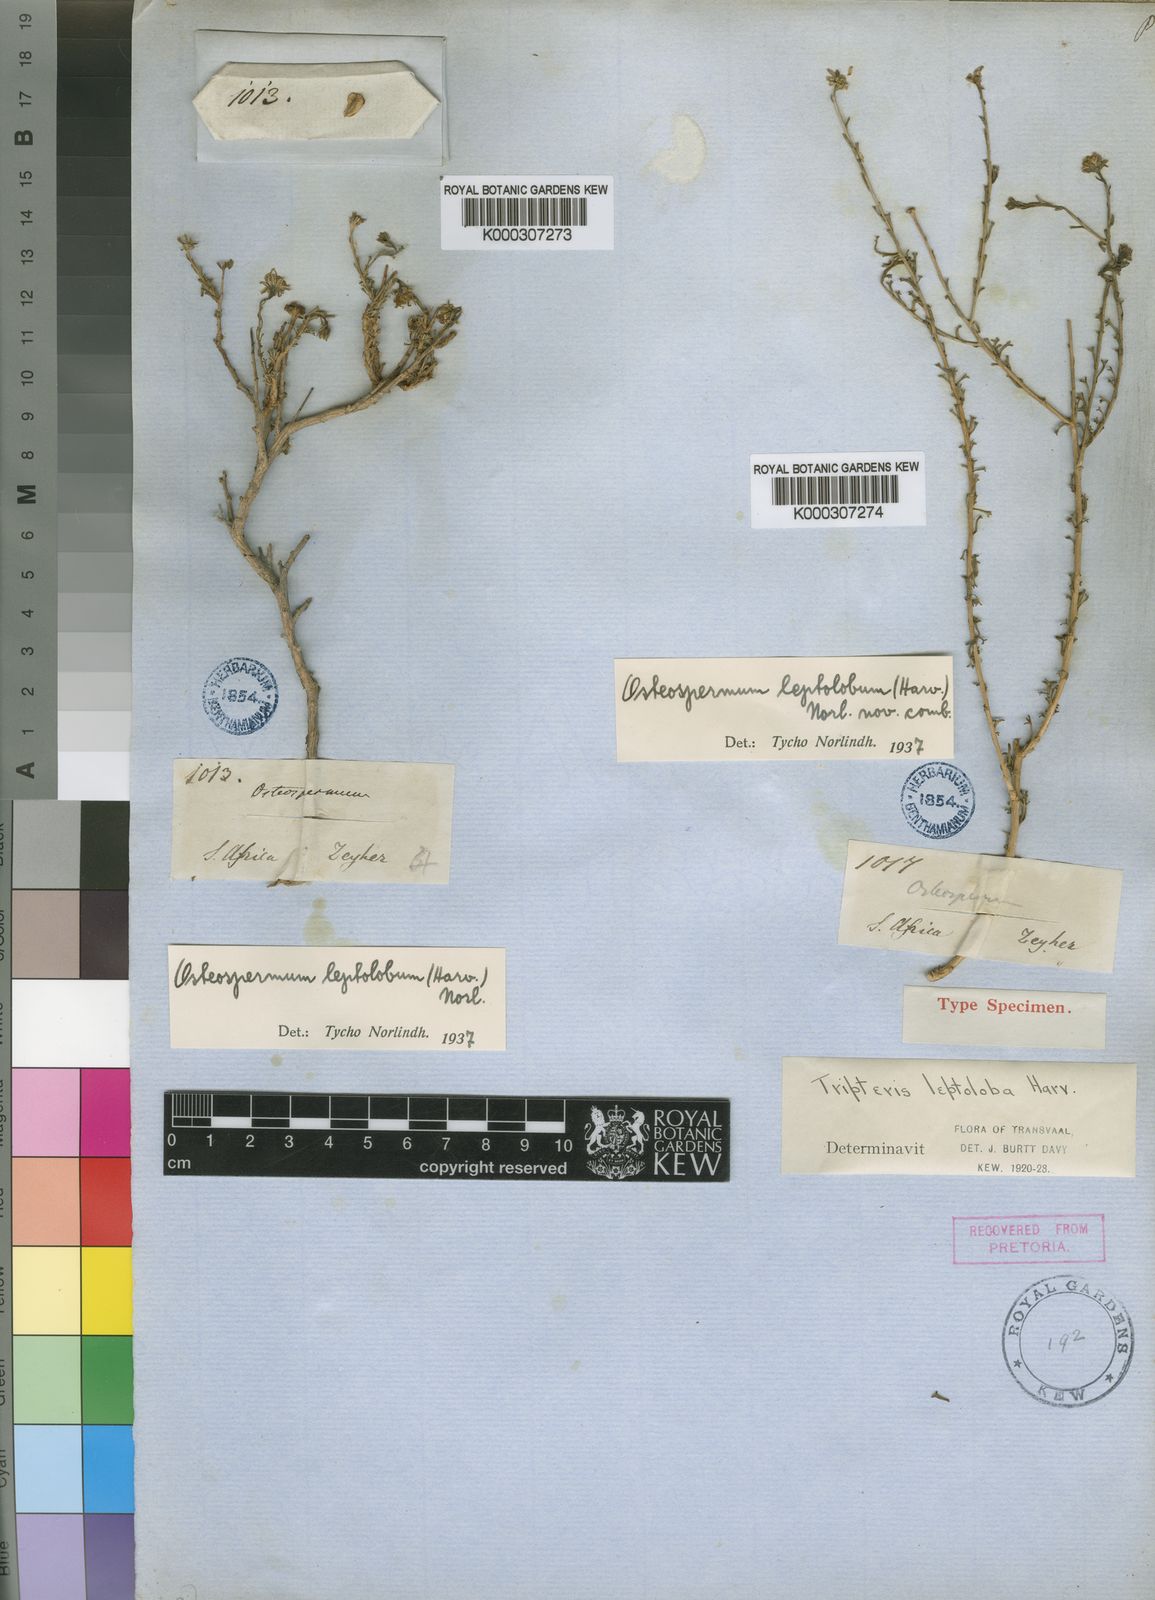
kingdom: Plantae
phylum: Tracheophyta
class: Magnoliopsida
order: Asterales
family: Asteraceae
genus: Osteospermum
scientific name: Osteospermum leptolobum
